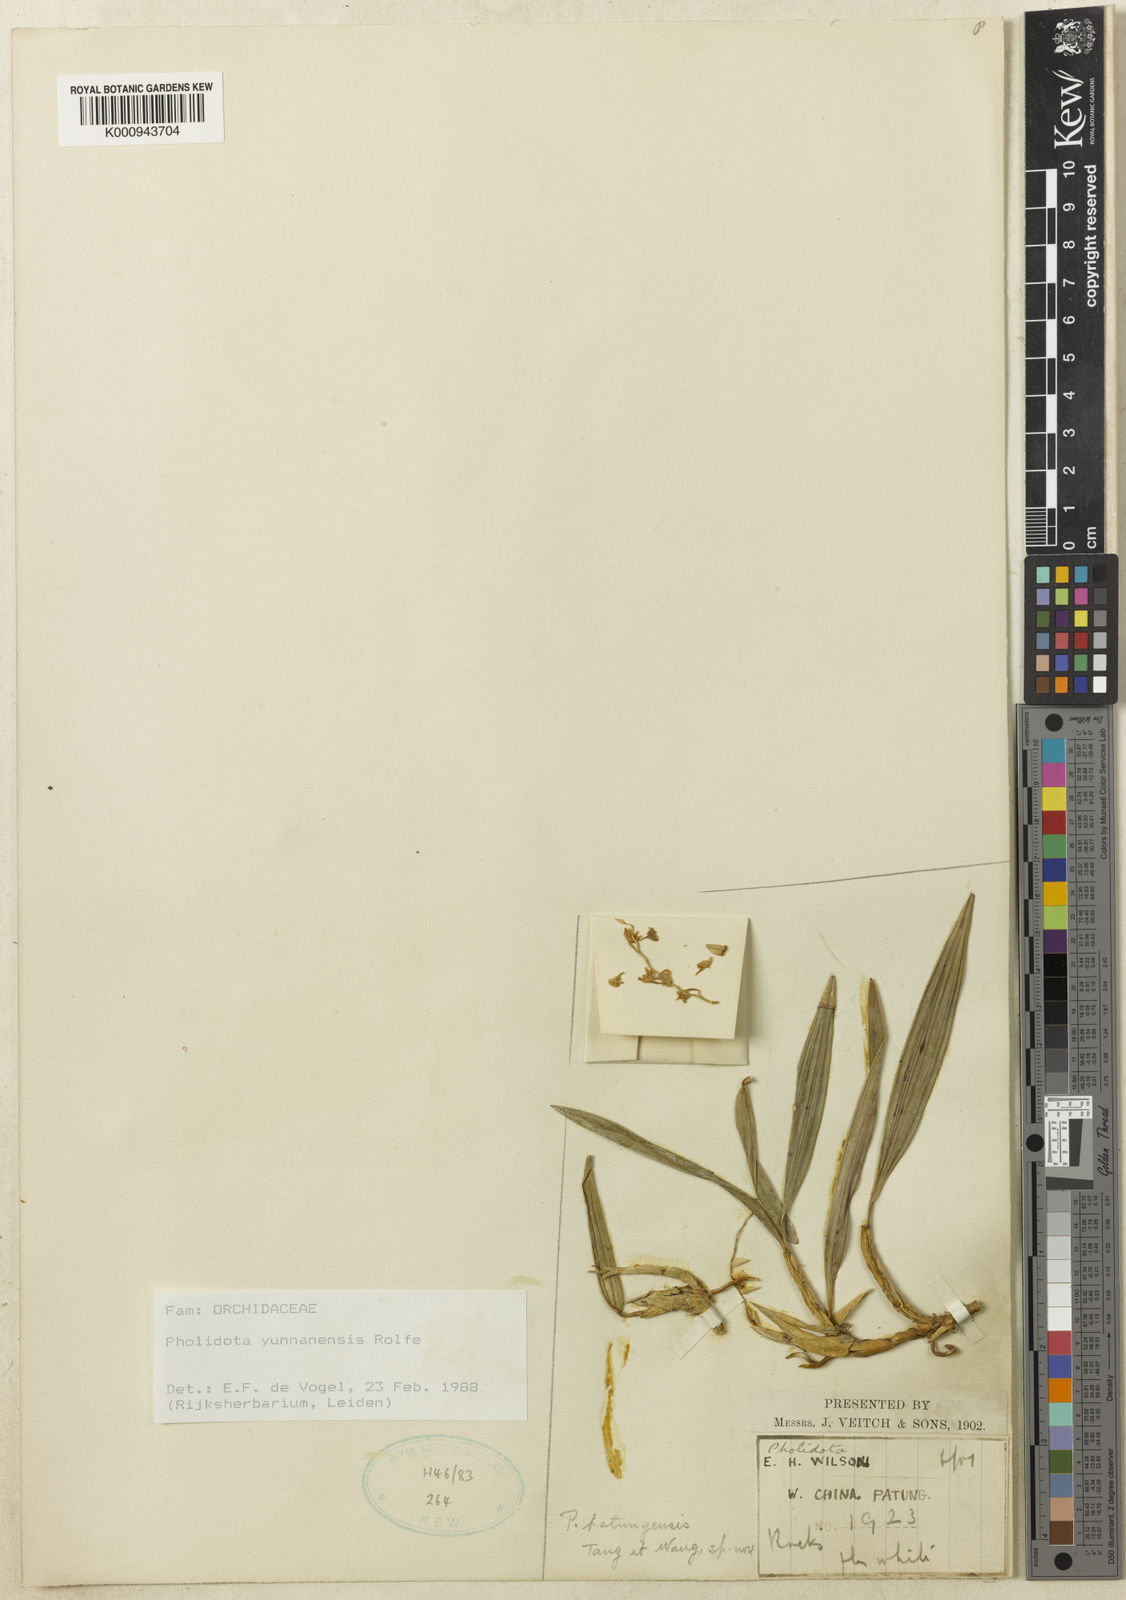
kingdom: Plantae
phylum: Tracheophyta
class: Liliopsida
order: Asparagales
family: Orchidaceae
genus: Coelogyne
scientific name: Coelogyne kouytcheensis
